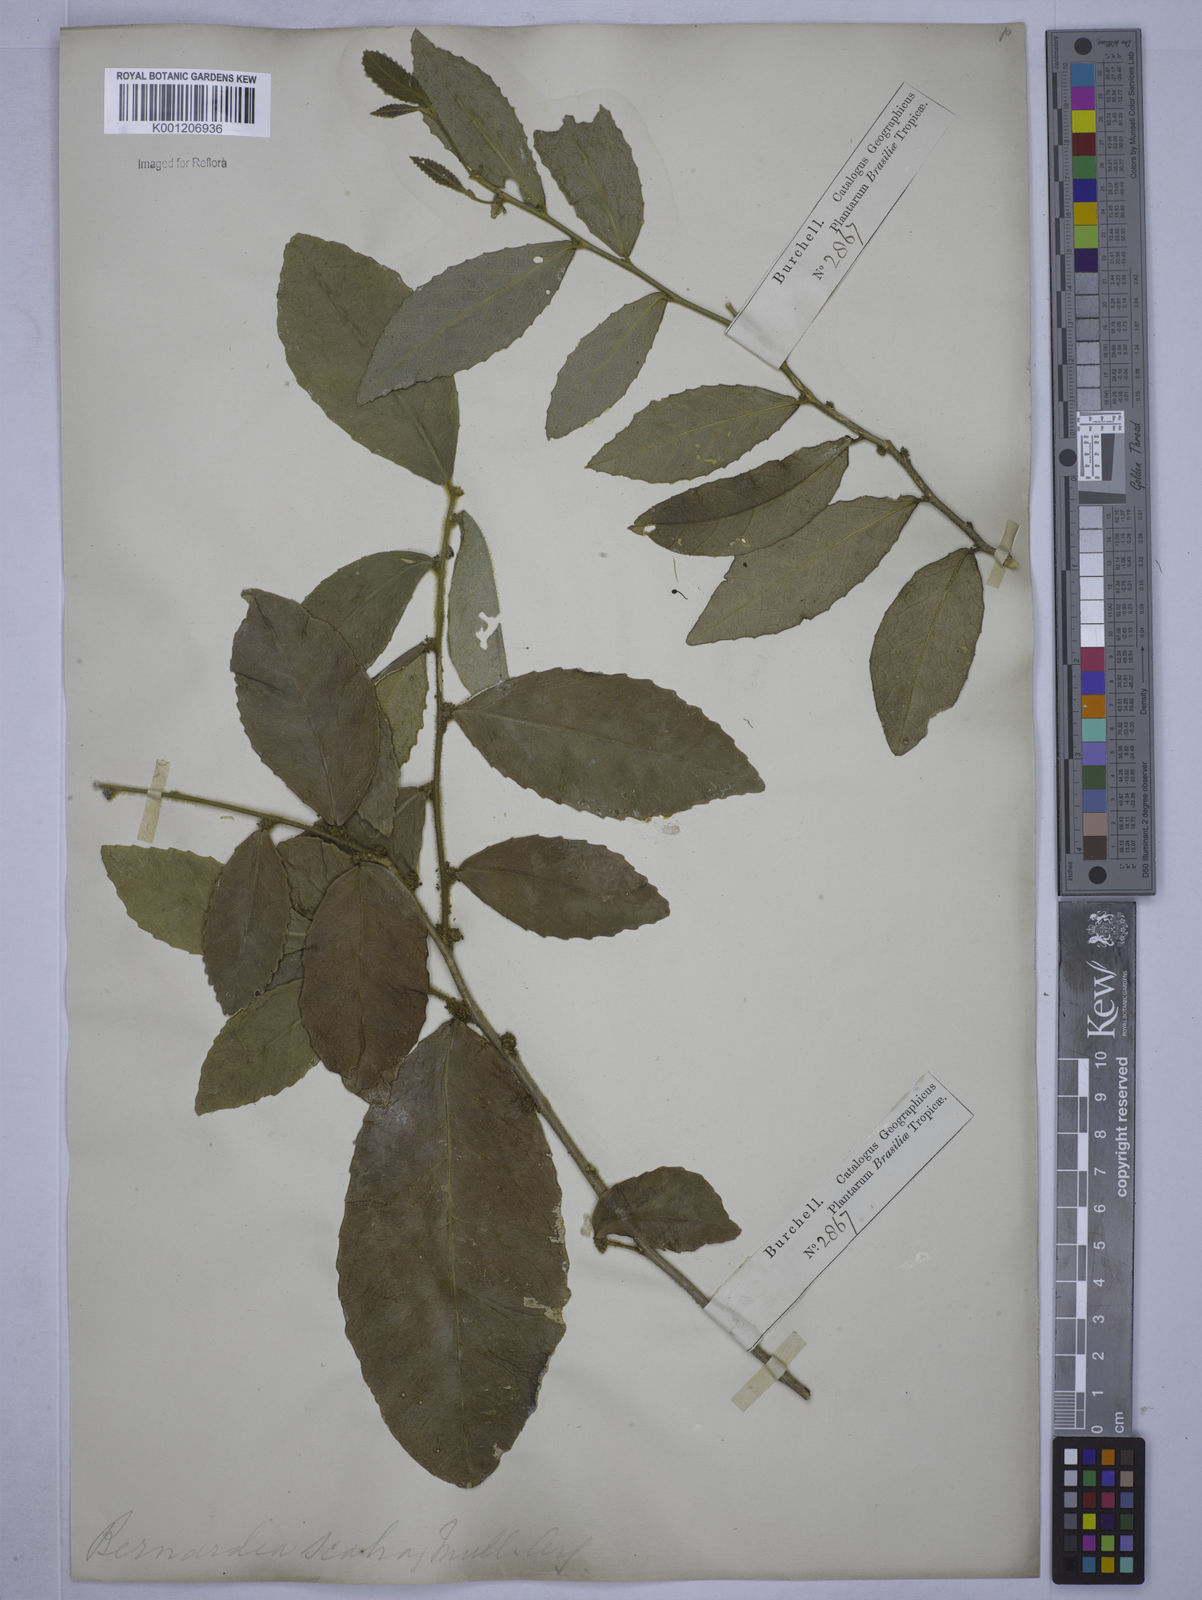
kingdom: Plantae
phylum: Tracheophyta
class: Magnoliopsida
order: Malpighiales
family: Euphorbiaceae
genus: Bernardia
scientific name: Bernardia axillaris
